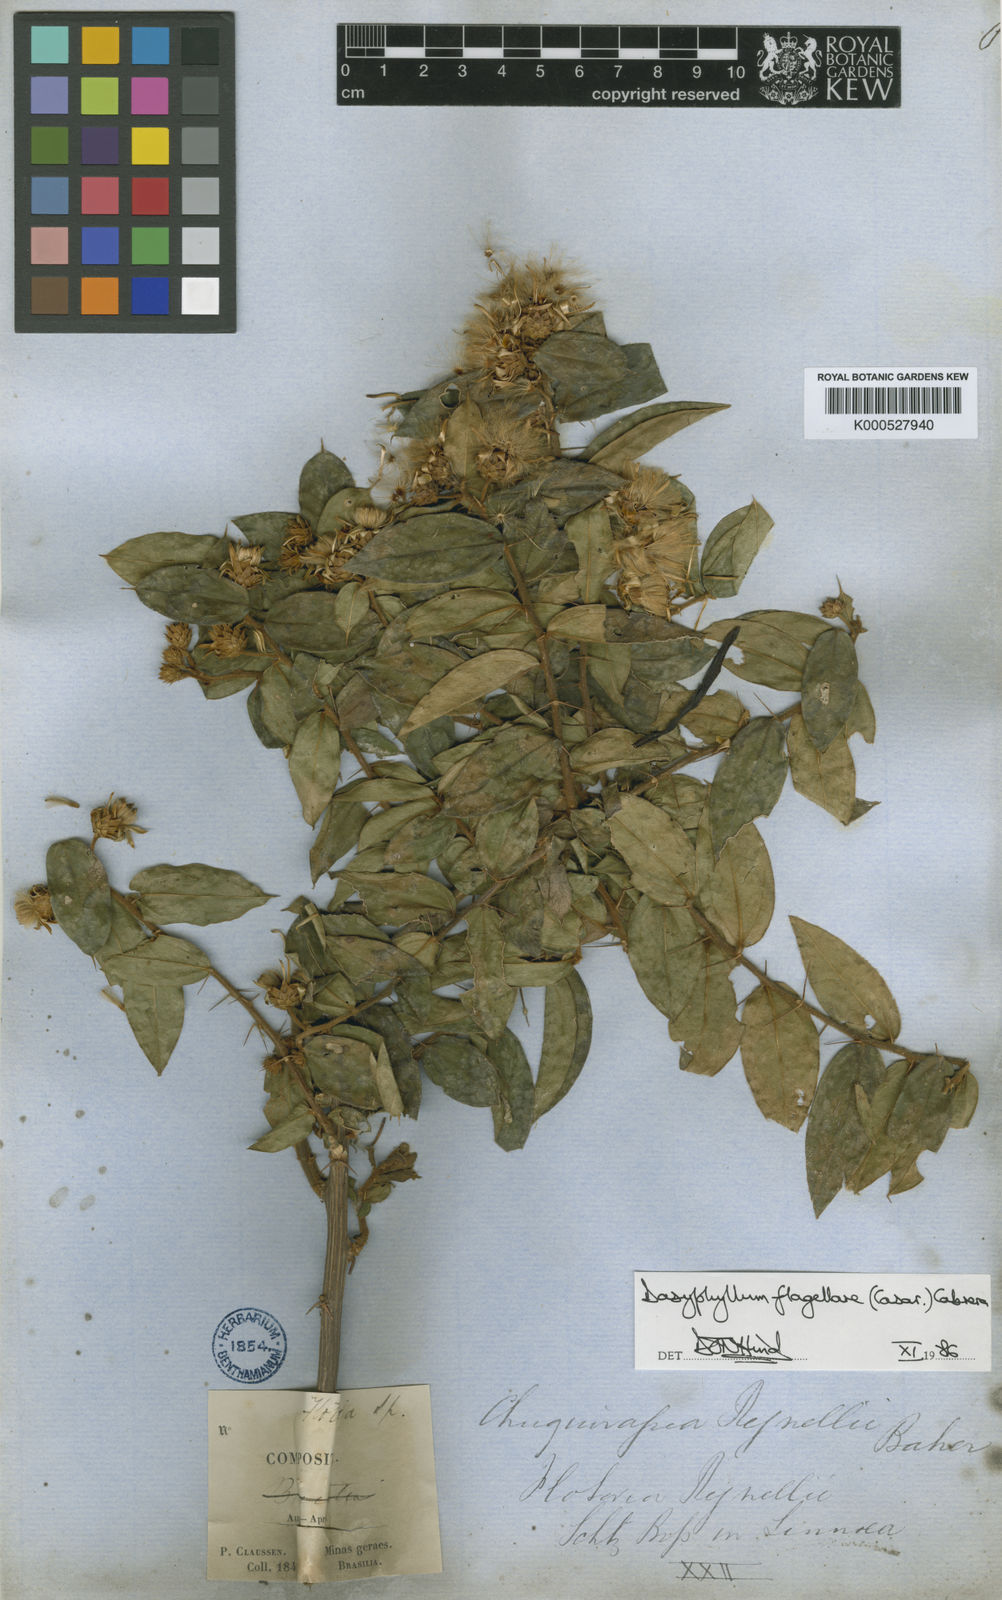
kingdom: Plantae
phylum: Tracheophyta
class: Magnoliopsida
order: Asterales
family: Asteraceae
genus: Dasyphyllum
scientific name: Dasyphyllum flagellare
